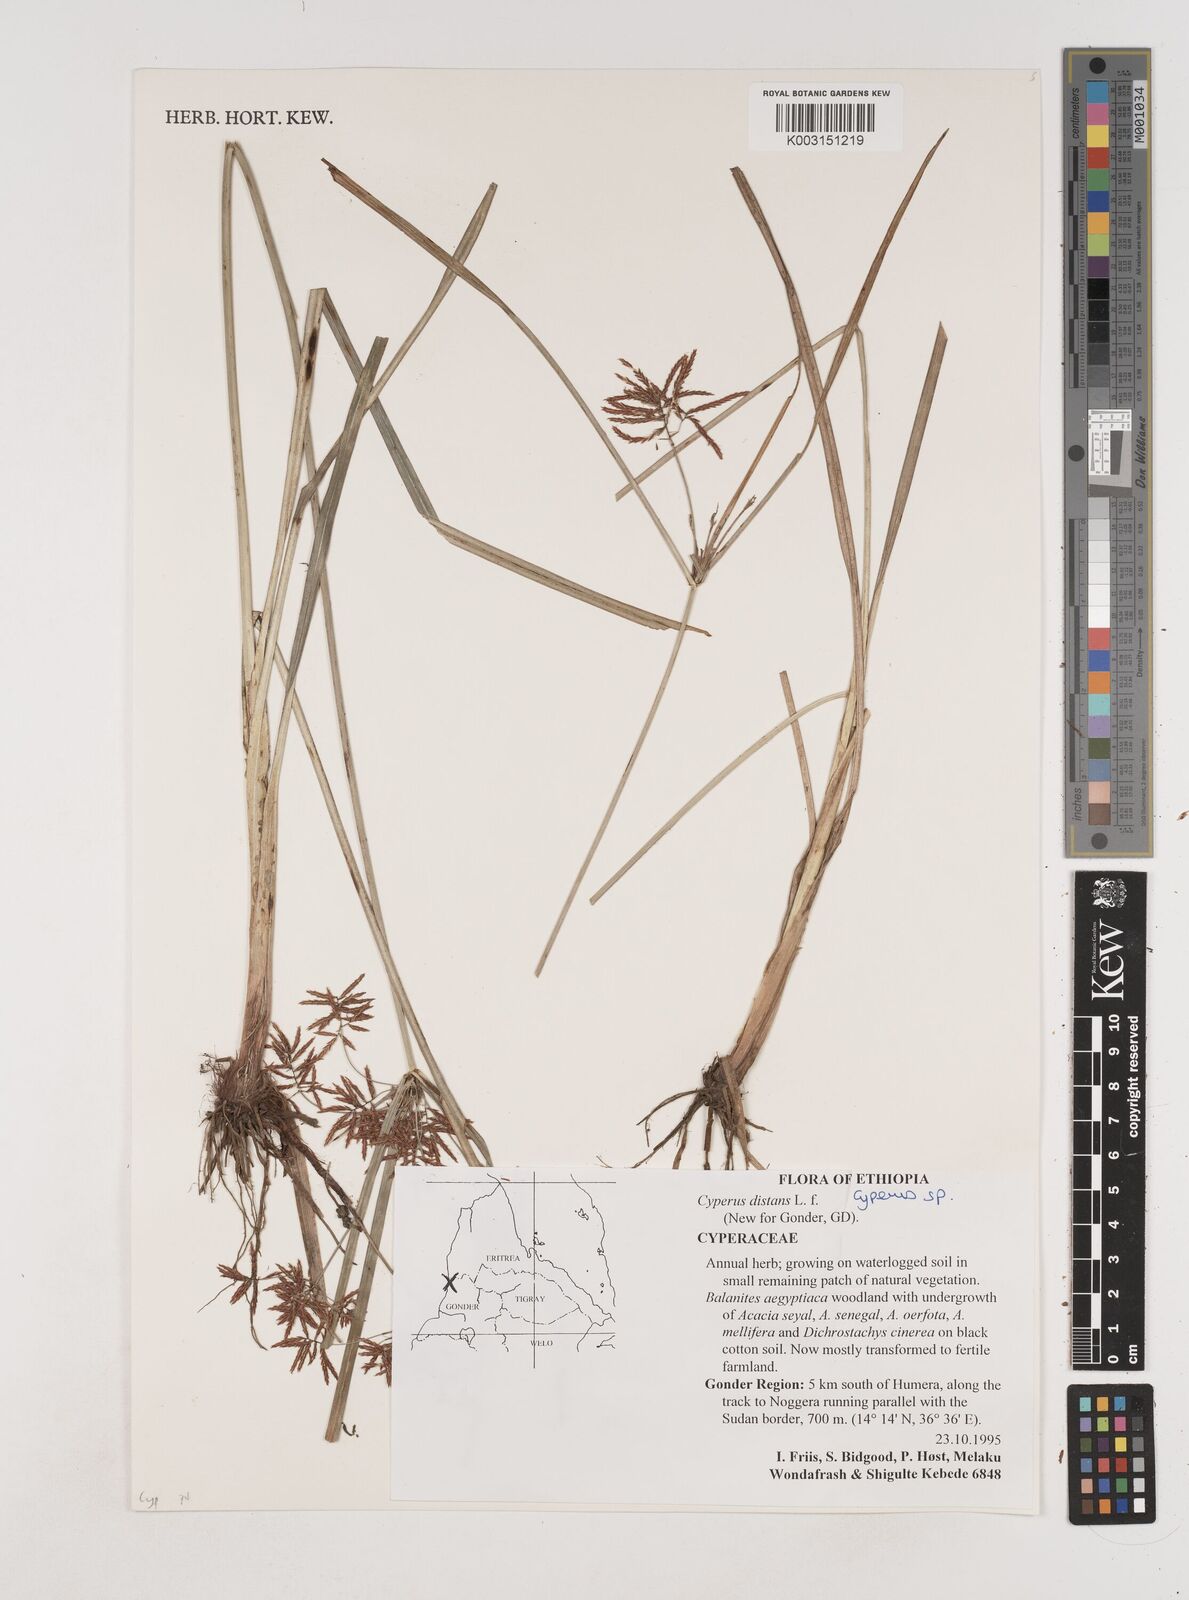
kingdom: Plantae
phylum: Tracheophyta
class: Liliopsida
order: Poales
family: Cyperaceae
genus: Cyperus
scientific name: Cyperus
